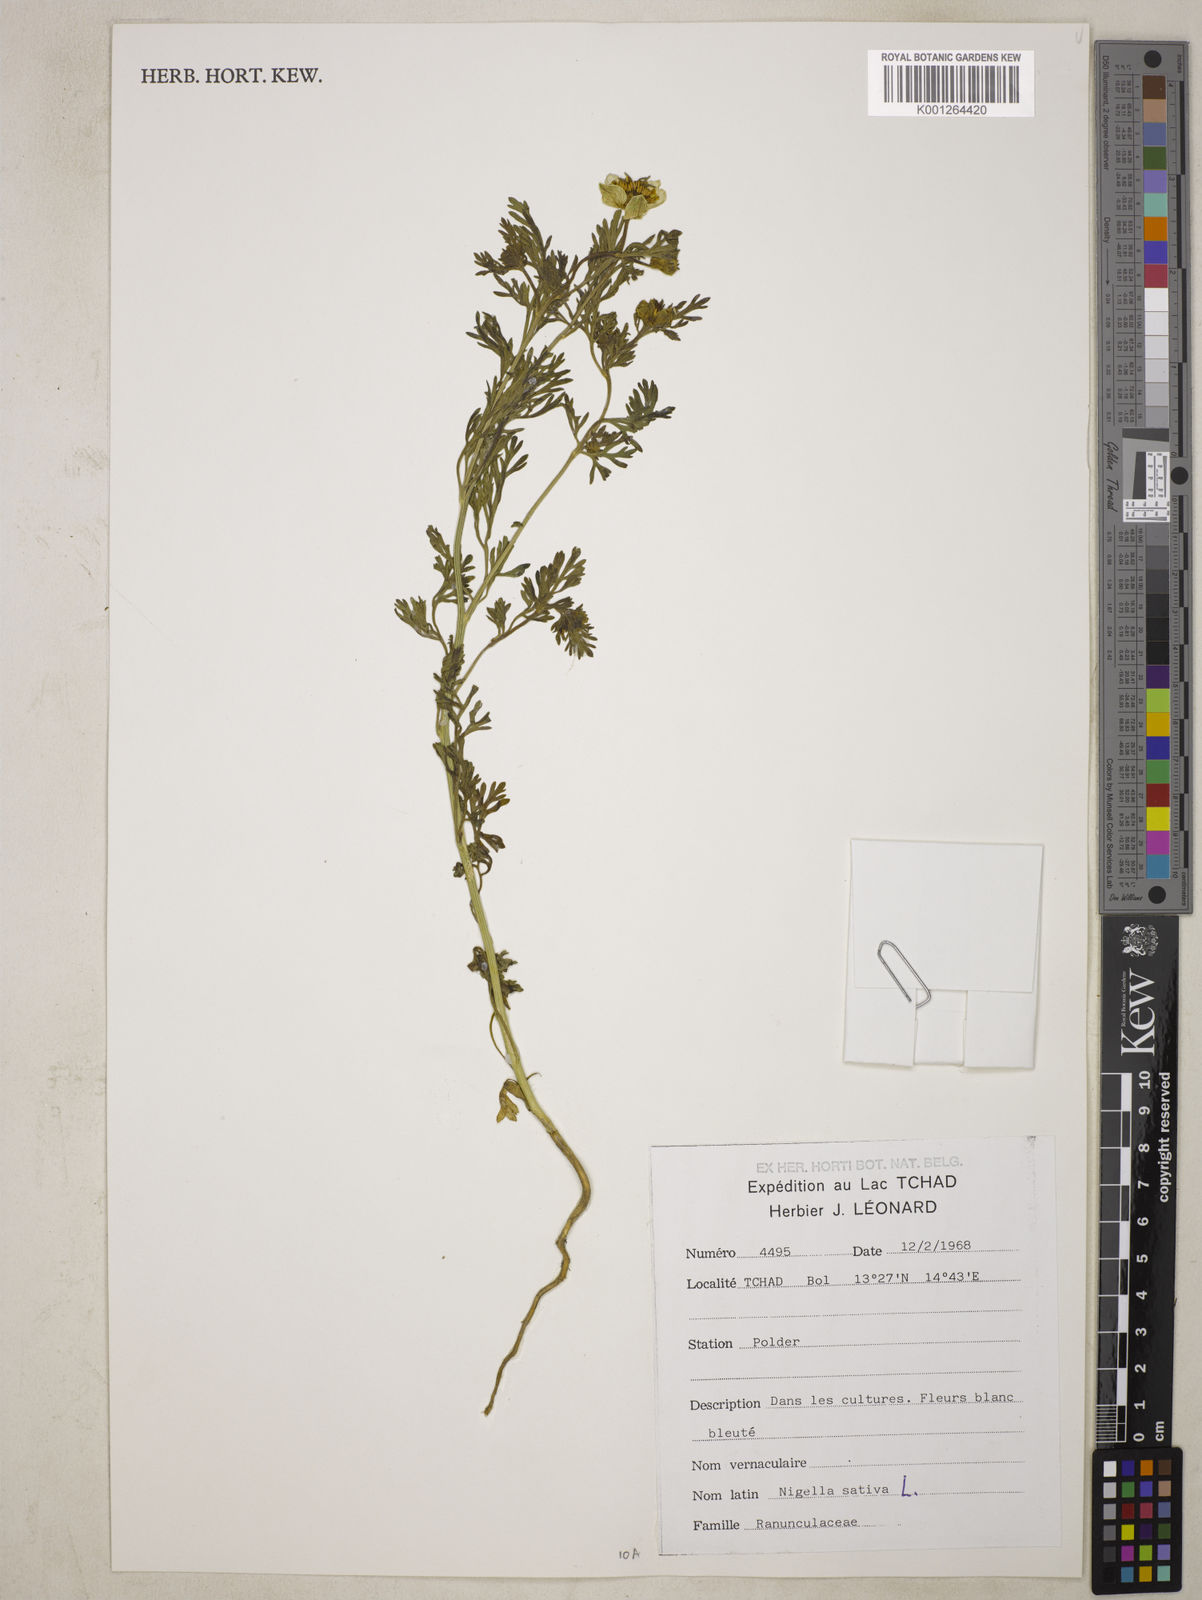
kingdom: Plantae
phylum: Tracheophyta
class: Magnoliopsida
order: Ranunculales
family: Ranunculaceae
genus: Nigella
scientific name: Nigella sativa
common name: Black-cumin
